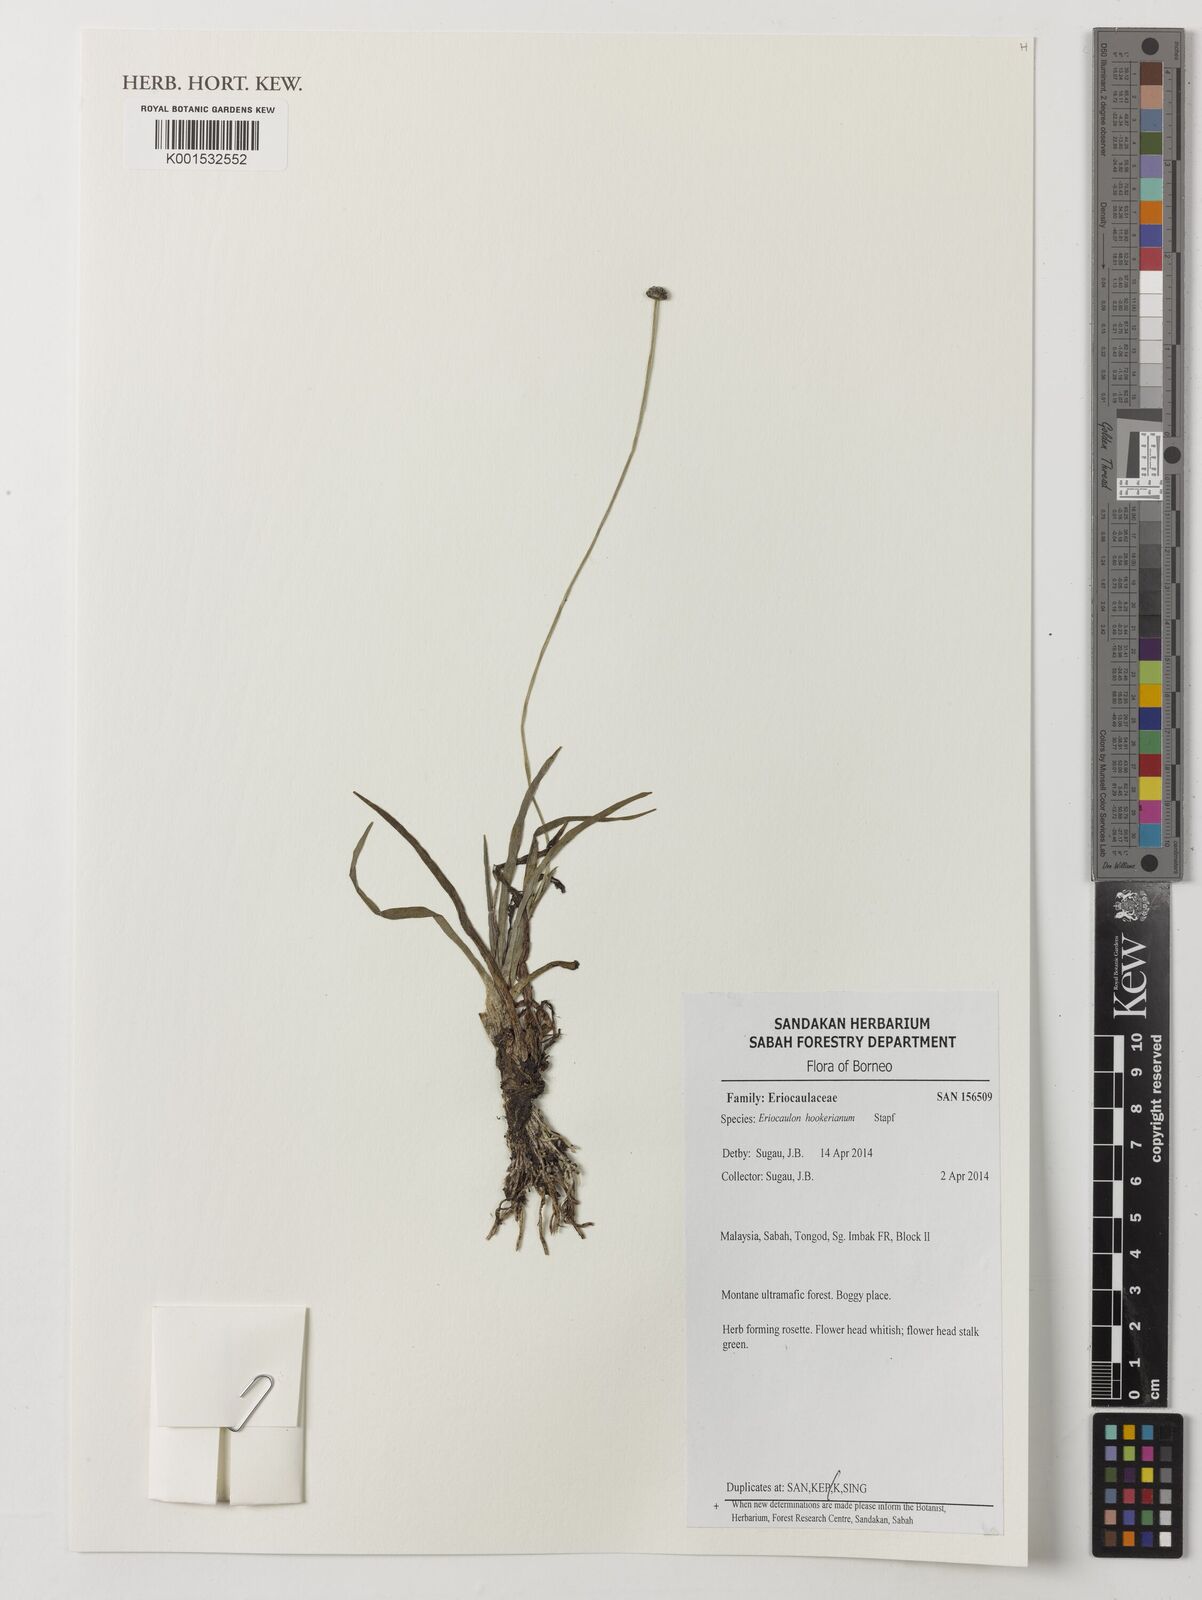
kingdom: Plantae
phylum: Tracheophyta
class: Liliopsida
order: Poales
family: Eriocaulaceae
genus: Eriocaulon
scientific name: Eriocaulon hookerianum
